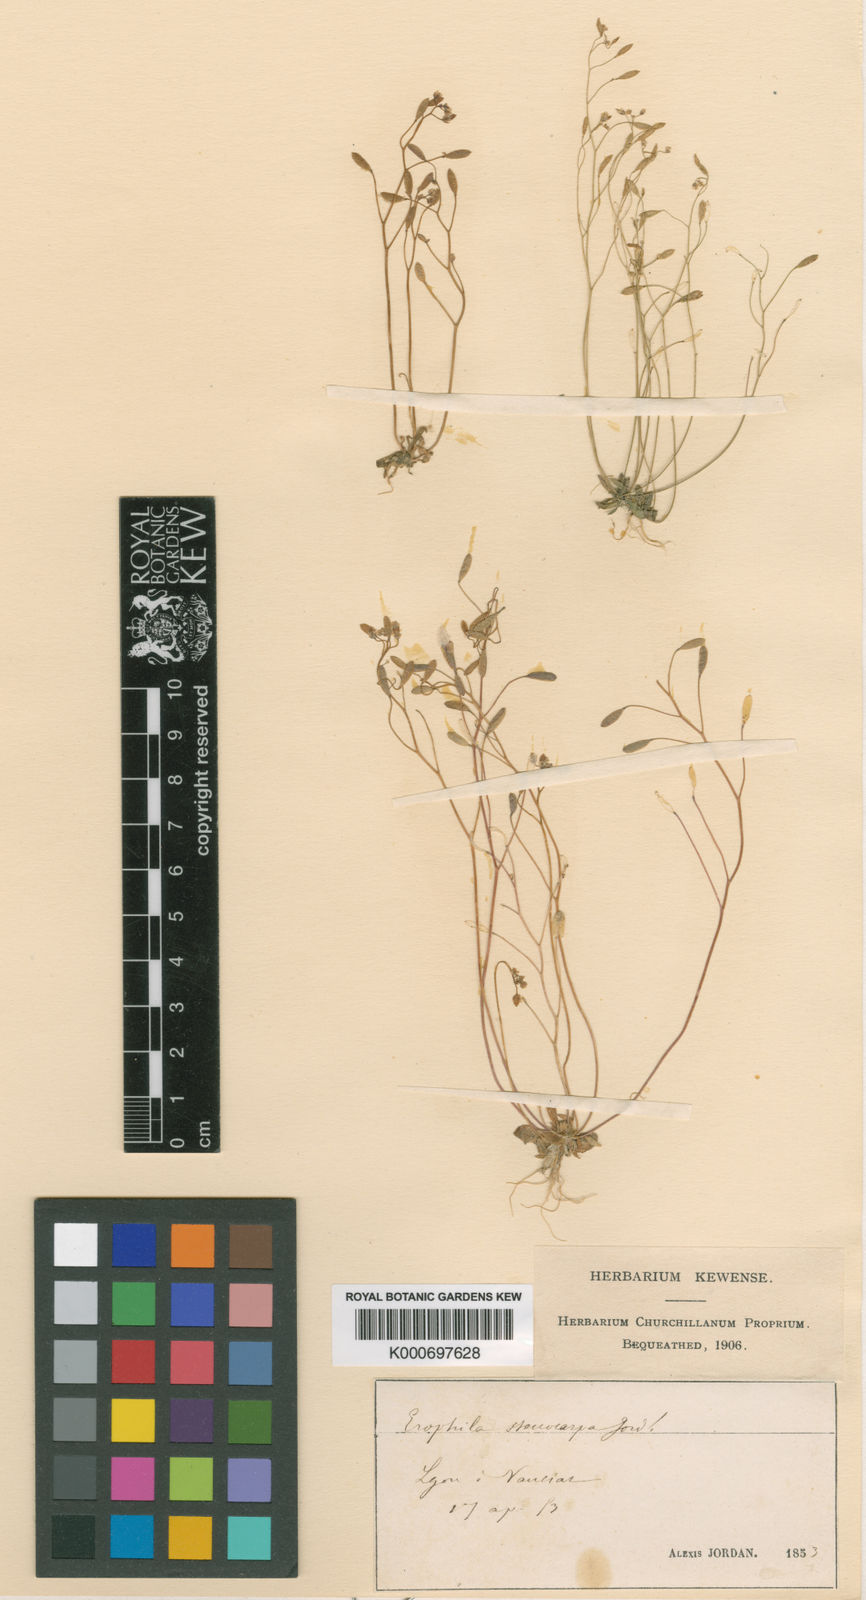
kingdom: Plantae
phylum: Tracheophyta
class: Magnoliopsida
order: Brassicales
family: Brassicaceae
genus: Draba
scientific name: Draba verna
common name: Spring draba
